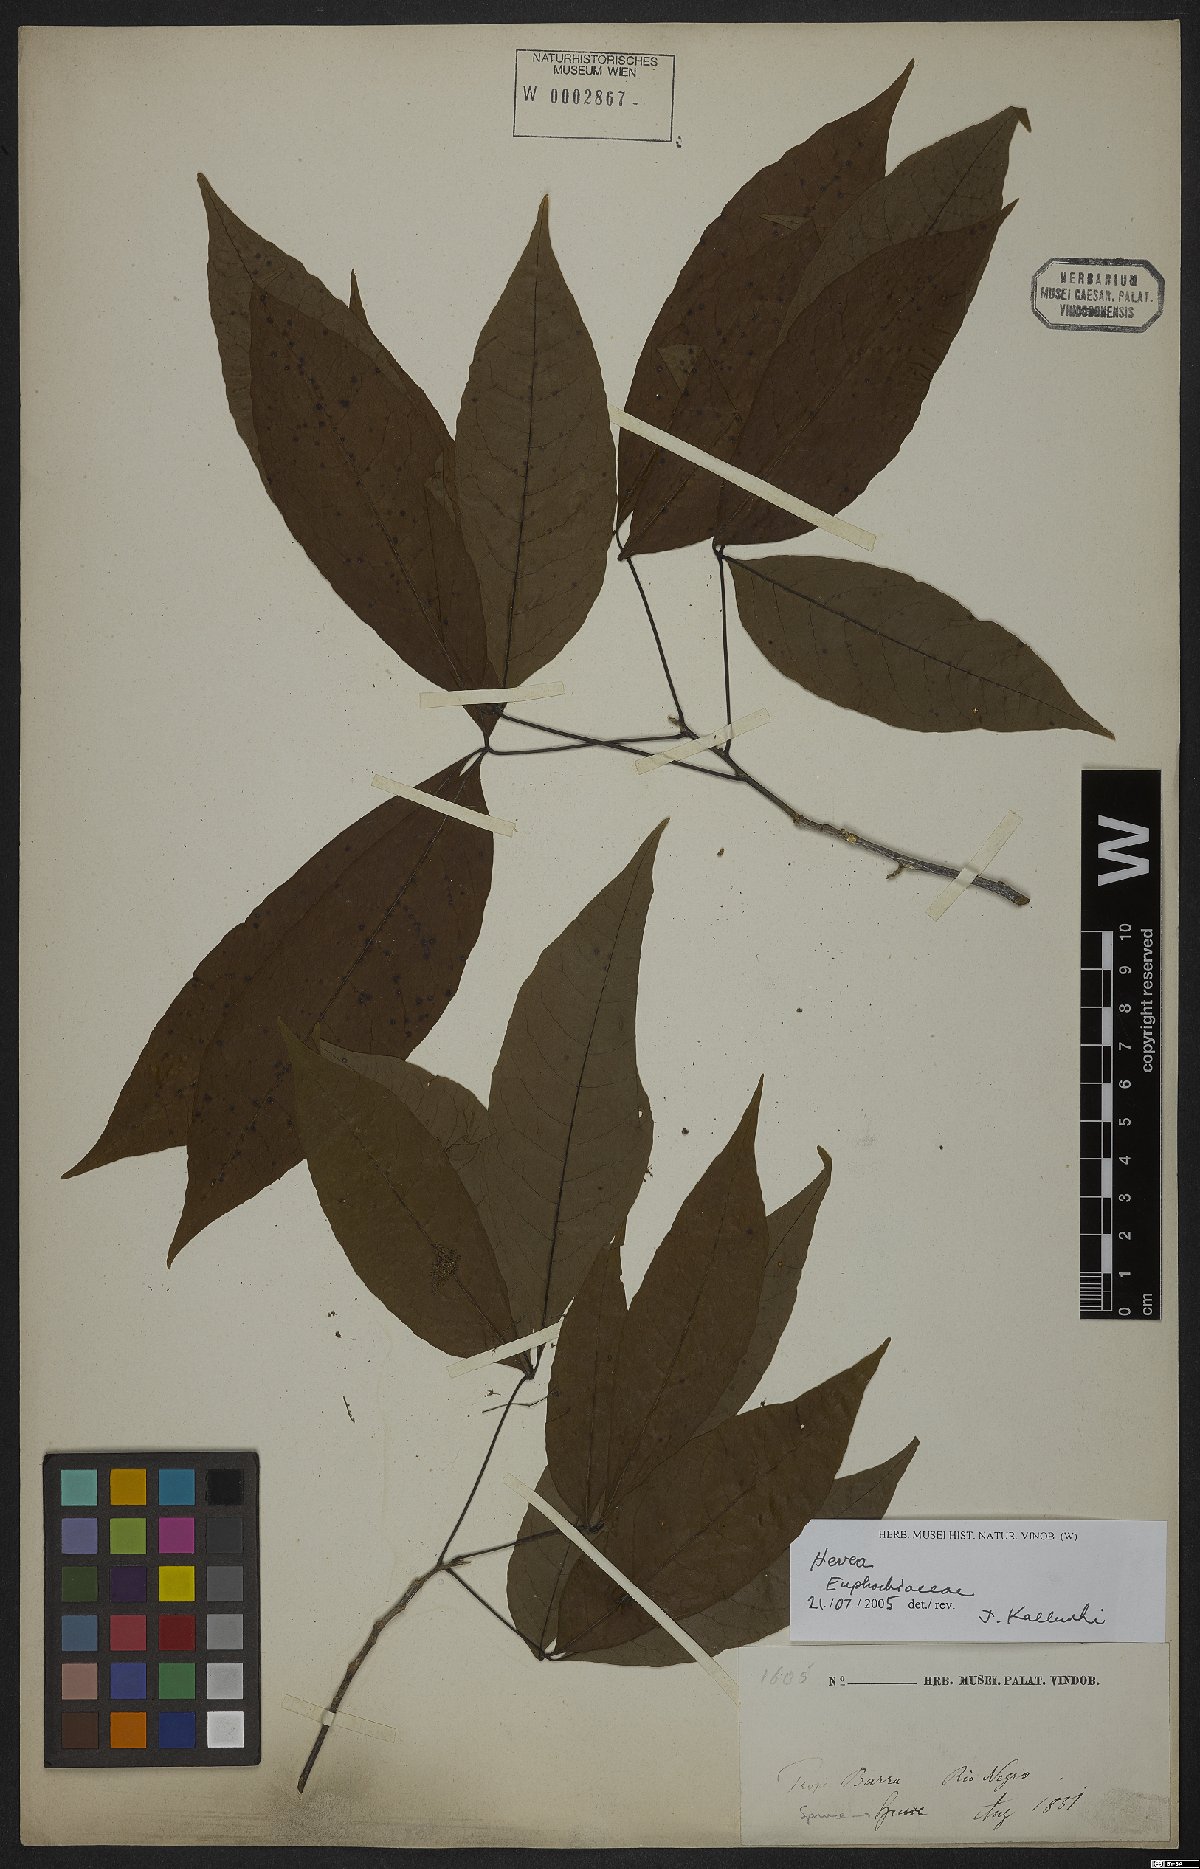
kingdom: Plantae
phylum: Tracheophyta
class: Magnoliopsida
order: Malpighiales
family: Euphorbiaceae
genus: Hevea
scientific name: Hevea
